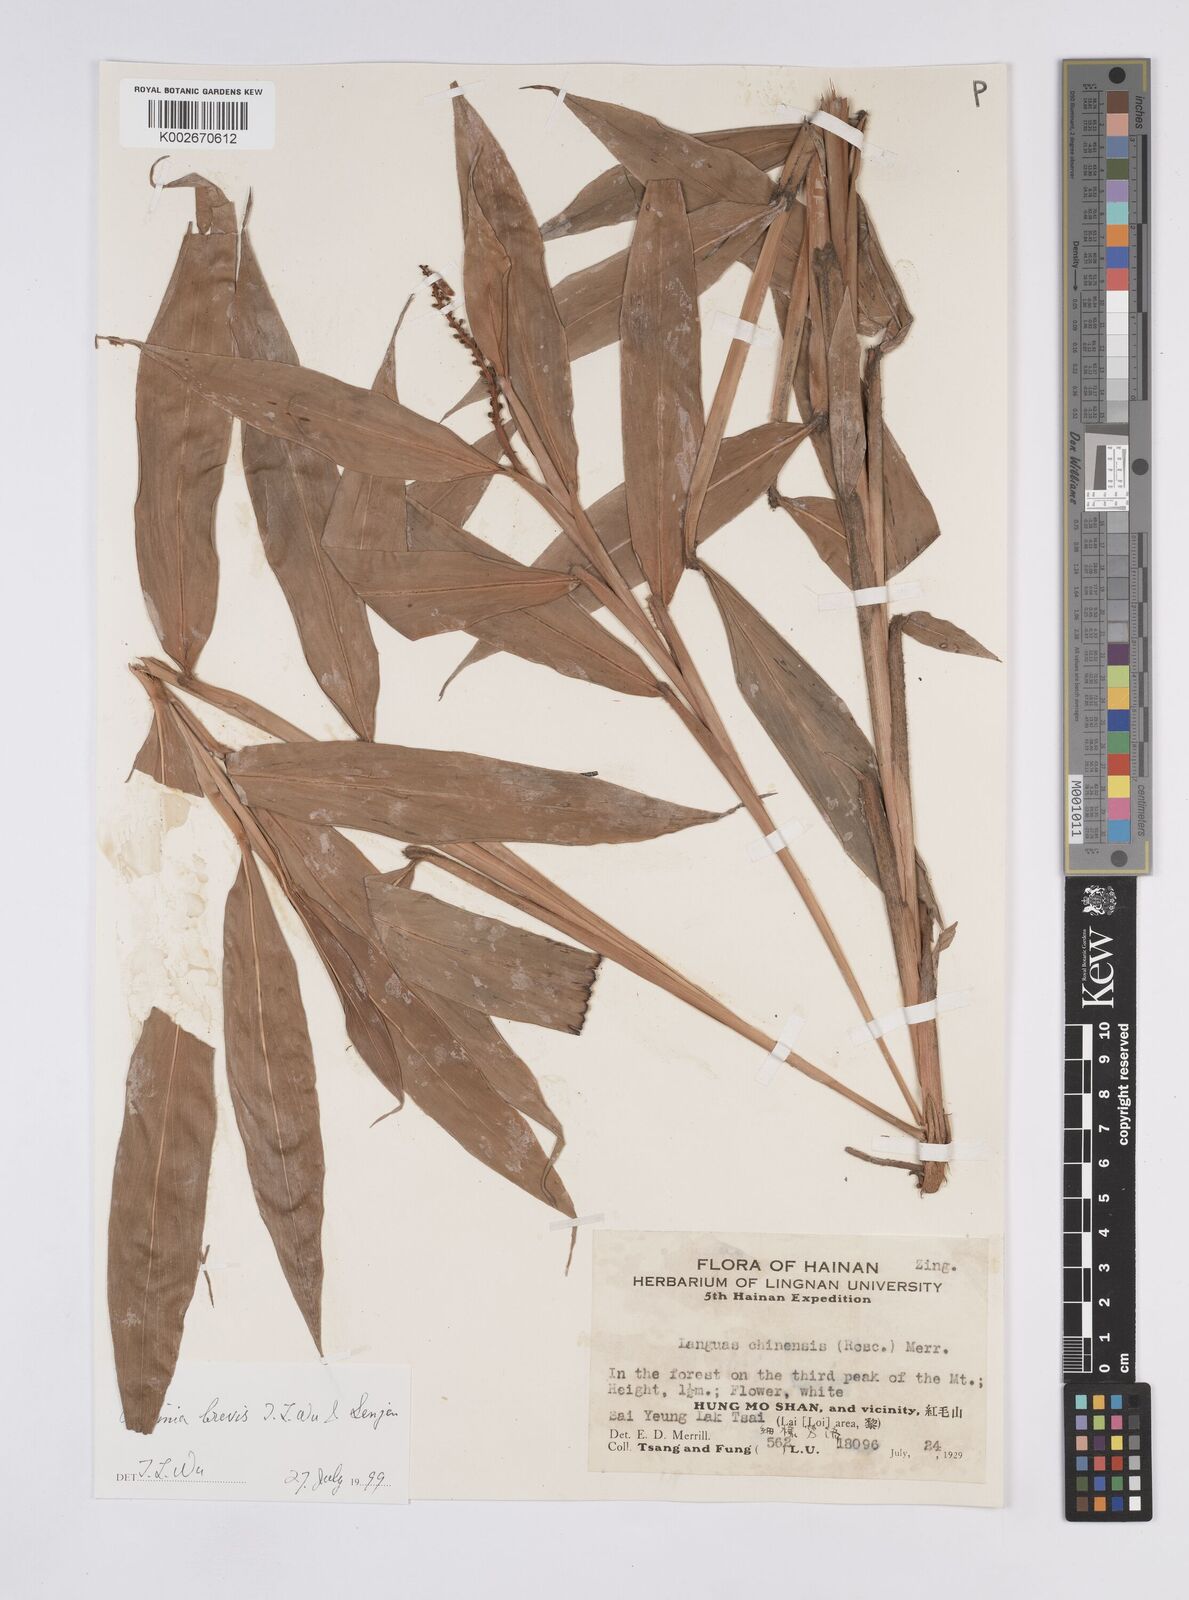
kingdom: Plantae
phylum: Tracheophyta
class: Liliopsida
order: Zingiberales
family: Zingiberaceae
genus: Alpinia
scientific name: Alpinia brevis
